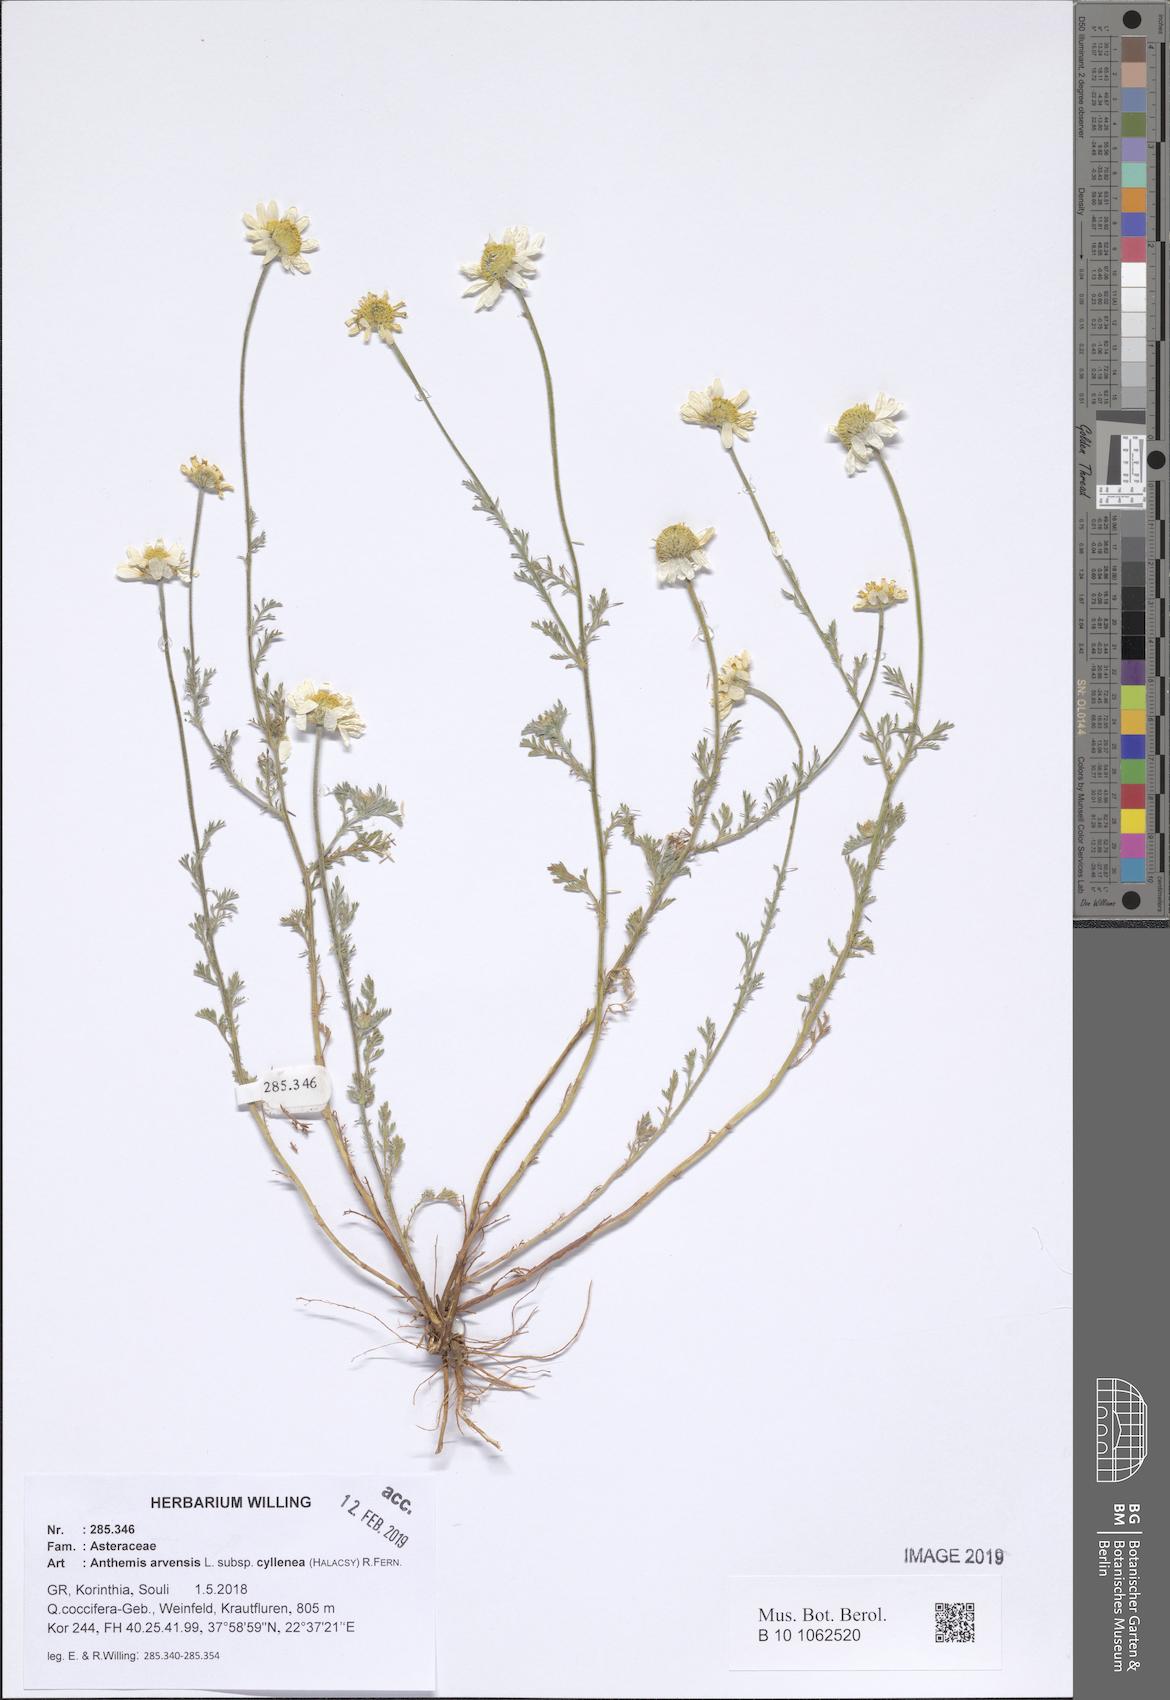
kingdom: Plantae
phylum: Tracheophyta
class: Magnoliopsida
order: Asterales
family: Asteraceae
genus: Anthemis
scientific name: Anthemis arvensis
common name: Corn chamomile
